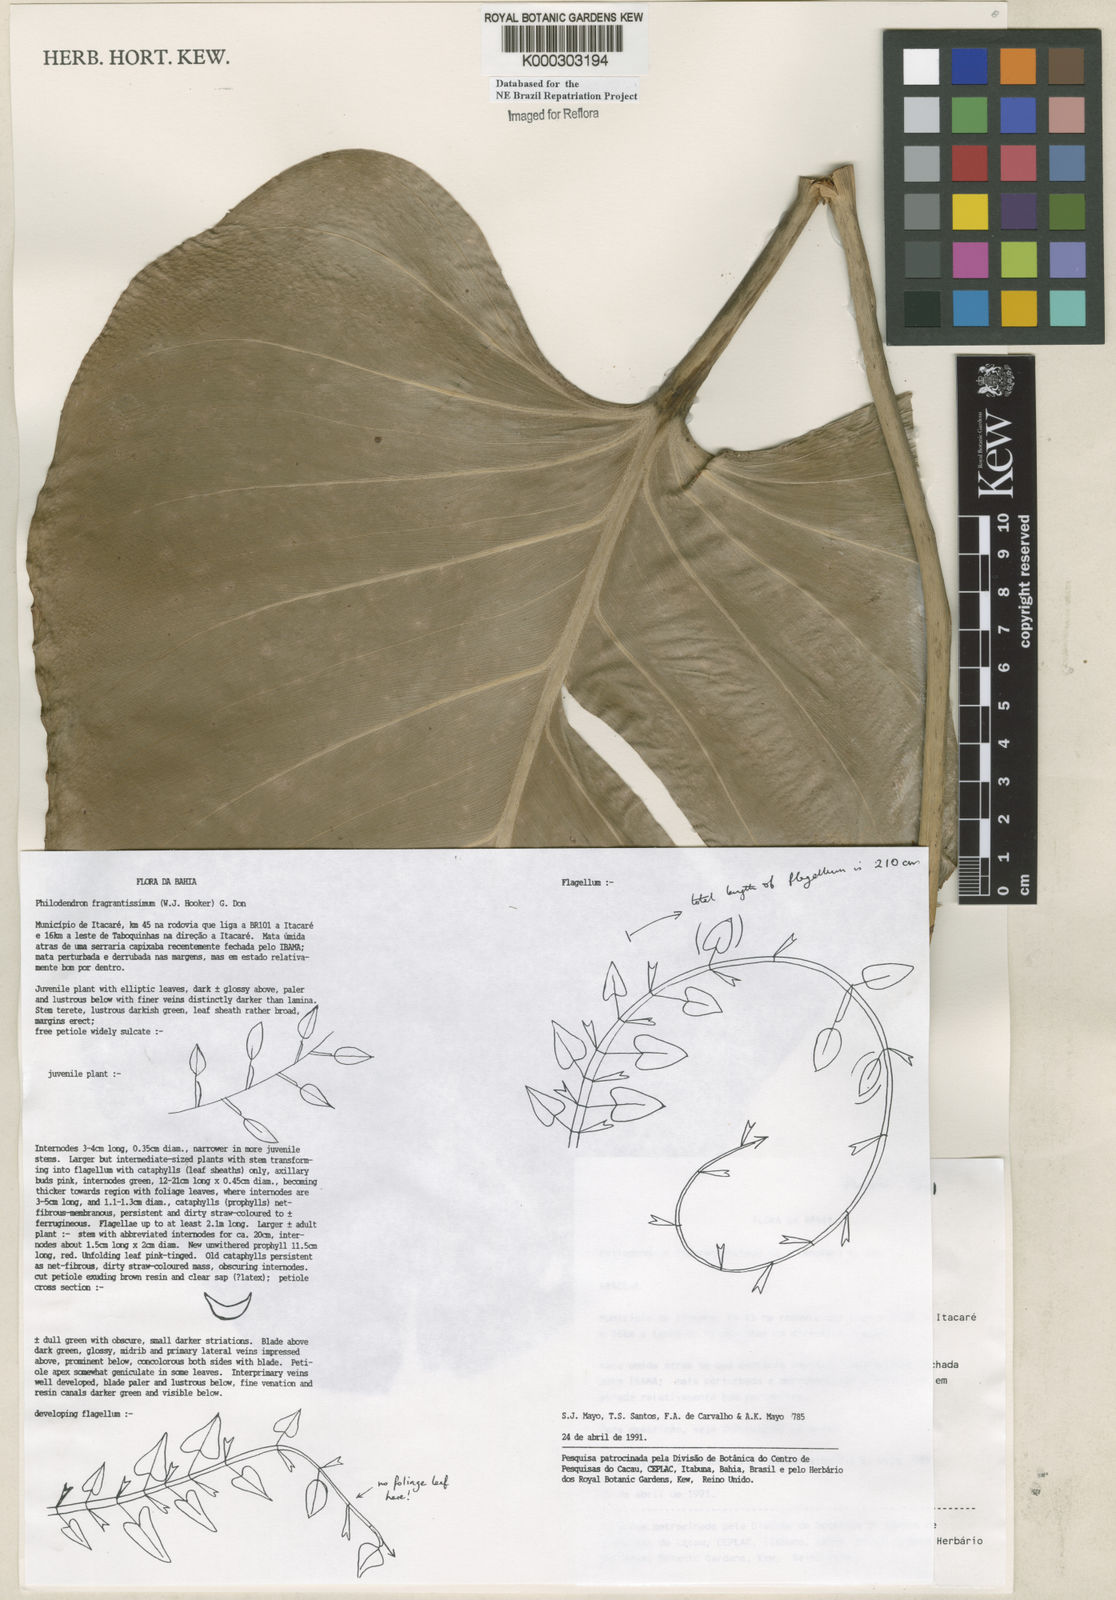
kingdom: Plantae
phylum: Tracheophyta
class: Liliopsida
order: Alismatales
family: Araceae
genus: Philodendron
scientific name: Philodendron fragrantissimum
